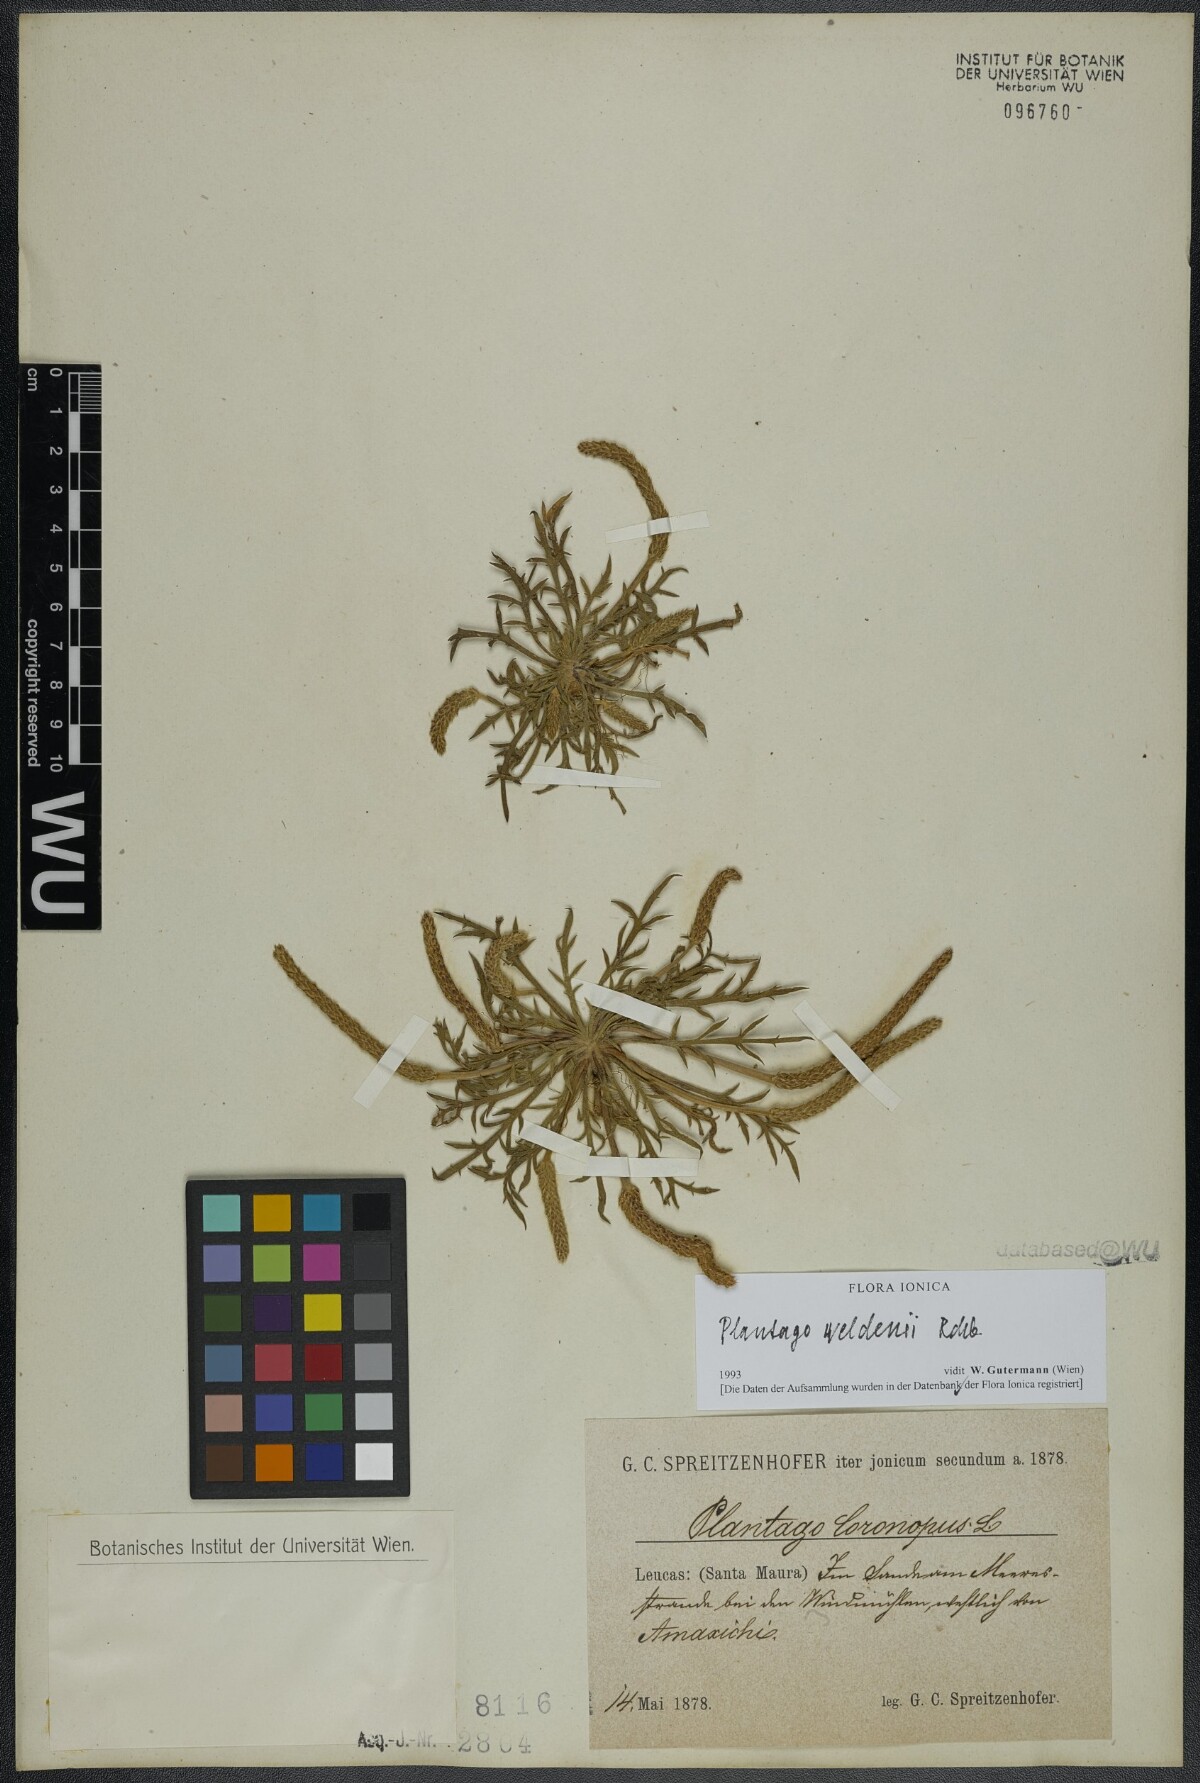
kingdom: Plantae
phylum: Tracheophyta
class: Magnoliopsida
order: Lamiales
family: Plantaginaceae
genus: Plantago
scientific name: Plantago weldenii
